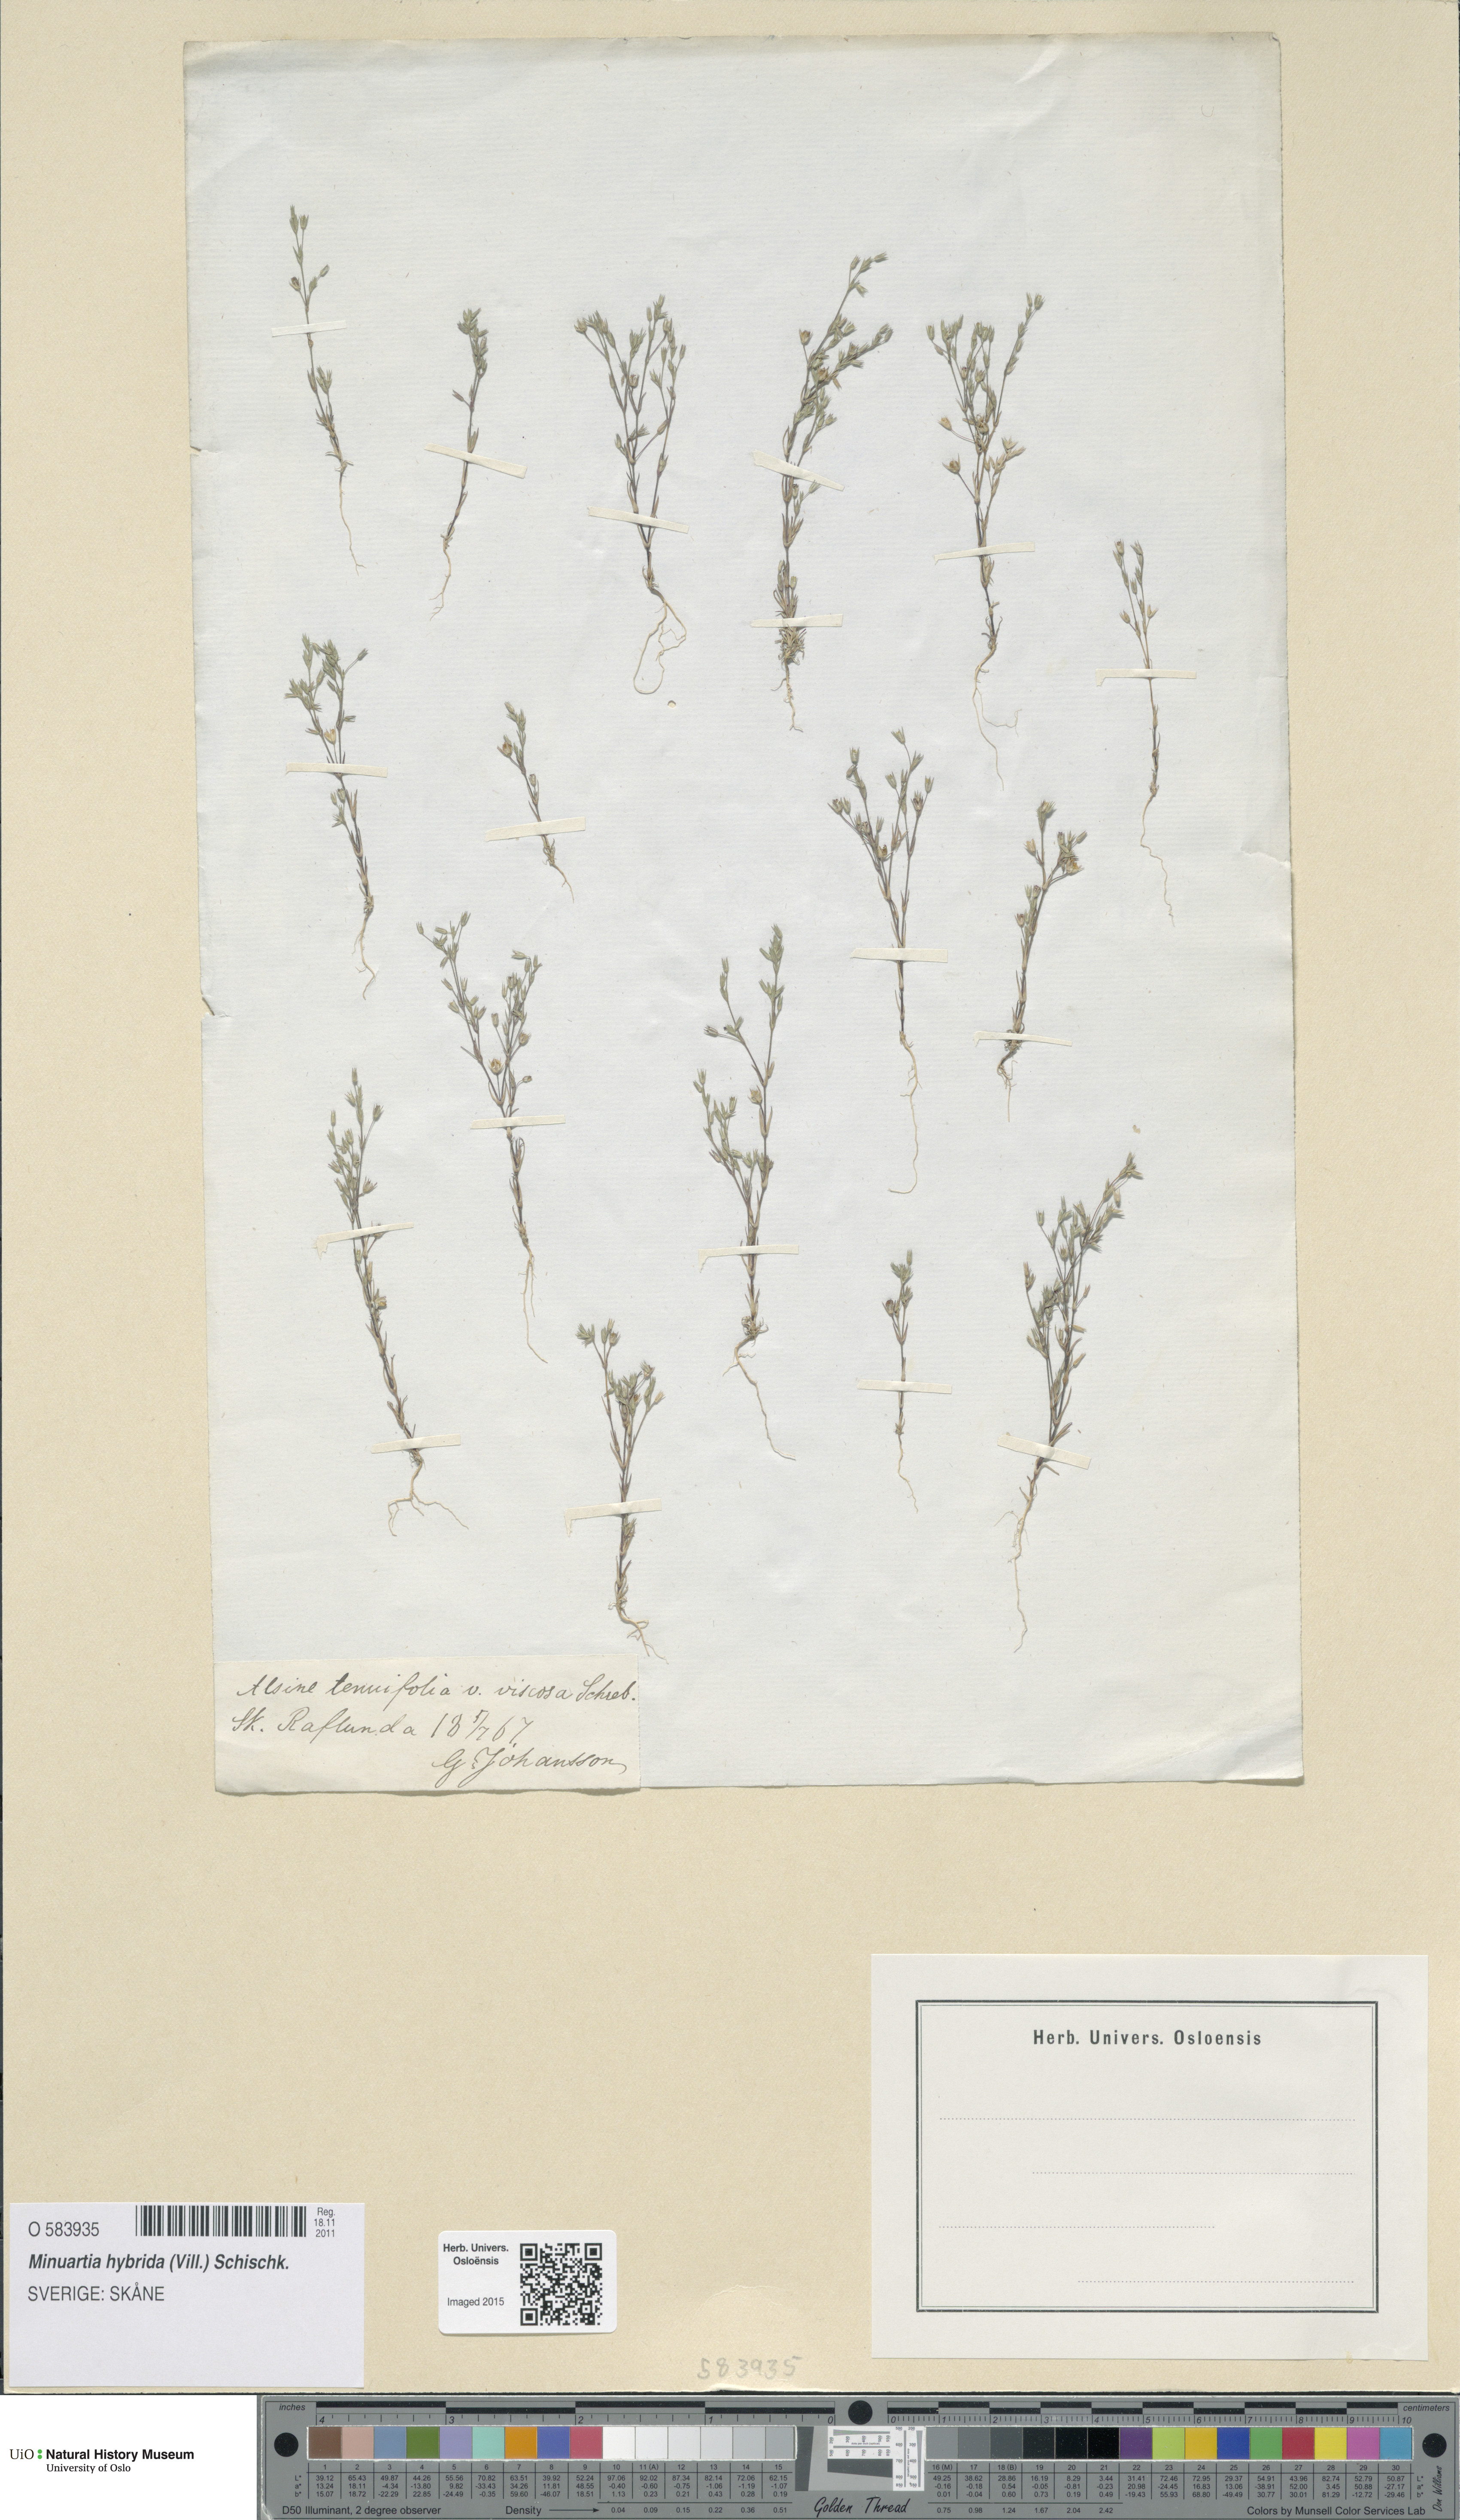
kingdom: Plantae
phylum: Tracheophyta
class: Magnoliopsida
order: Caryophyllales
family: Caryophyllaceae
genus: Sabulina
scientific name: Sabulina tenuifolia
